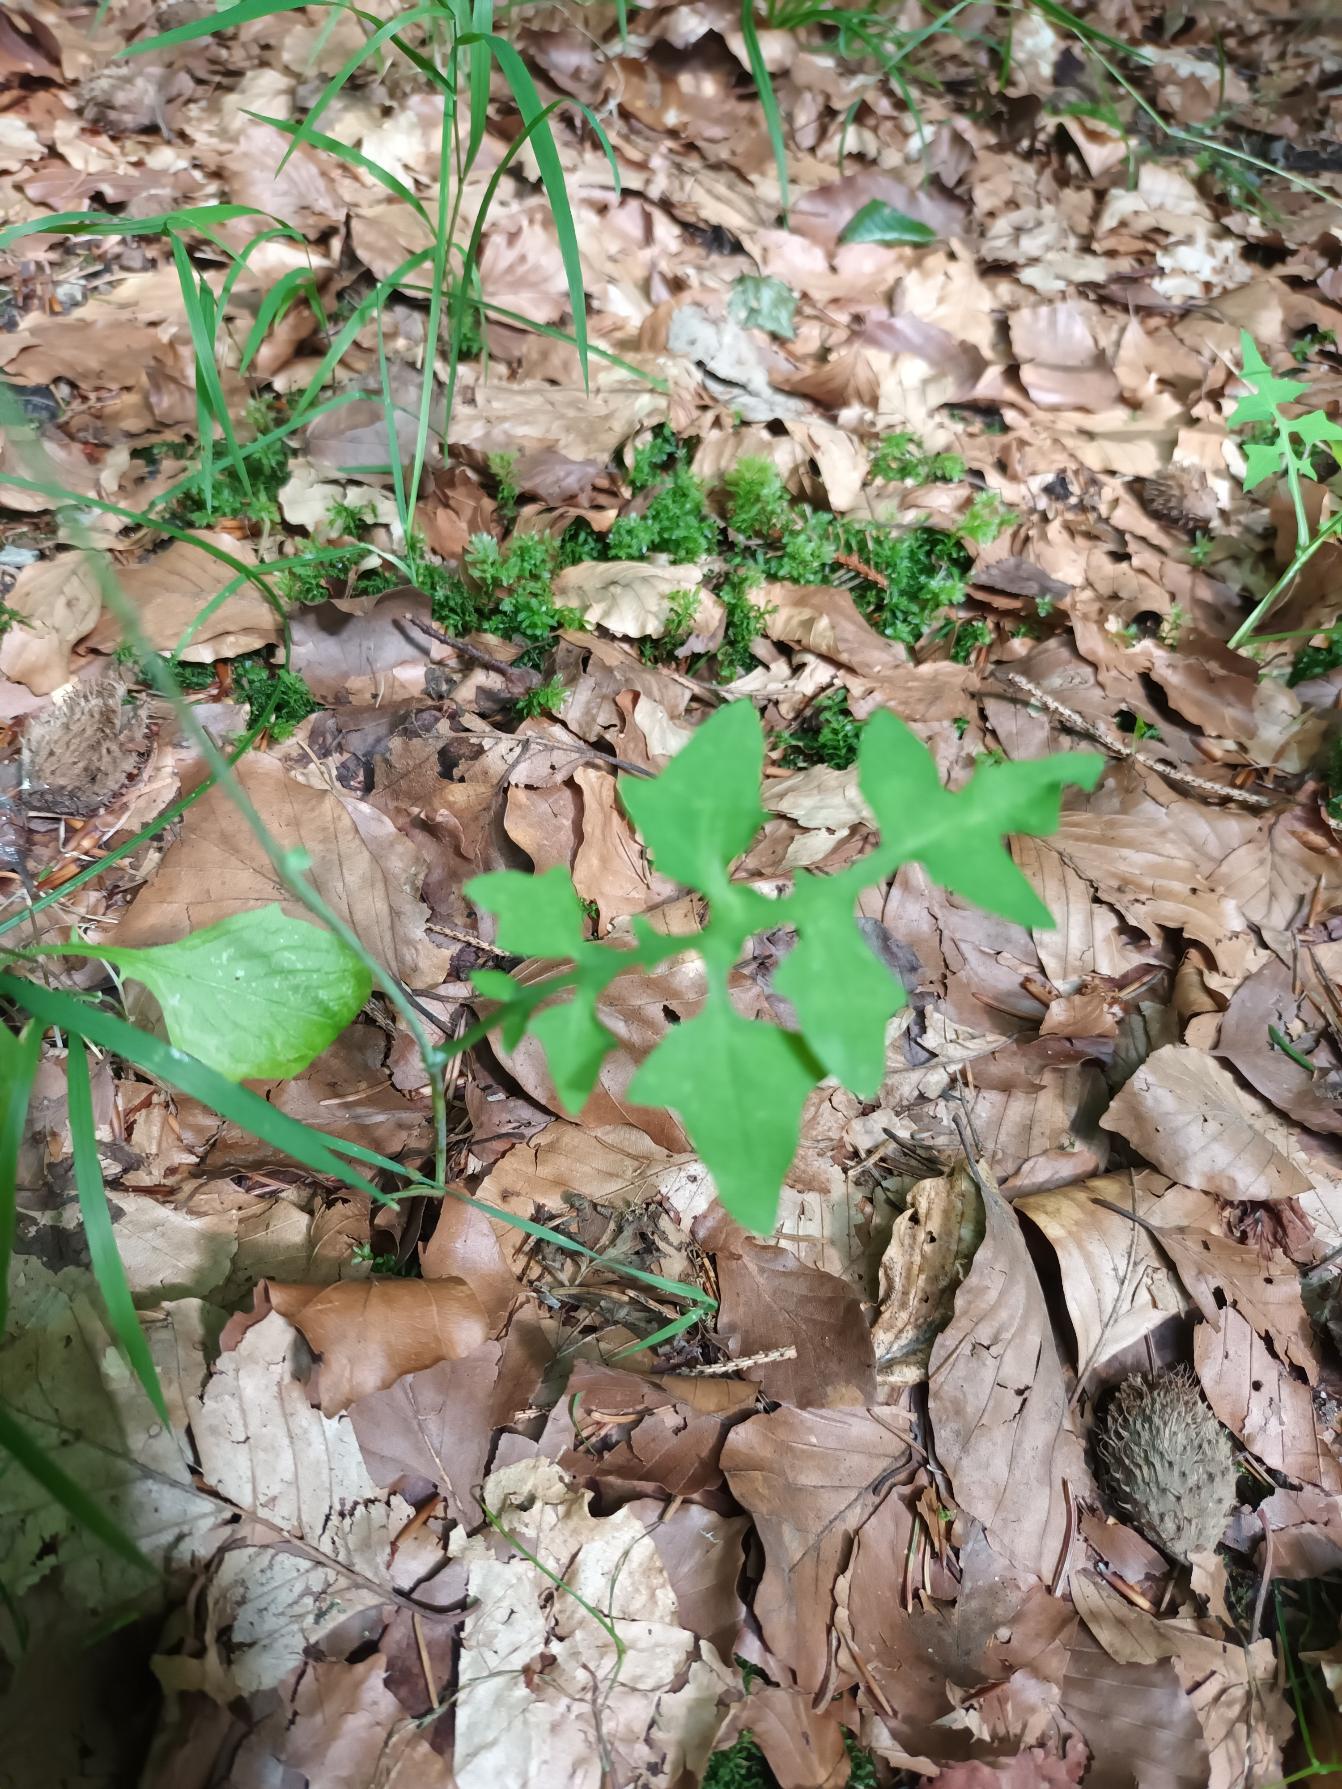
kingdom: Plantae
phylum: Tracheophyta
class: Magnoliopsida
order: Asterales
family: Asteraceae
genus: Mycelis
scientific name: Mycelis muralis
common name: Skov-salat
